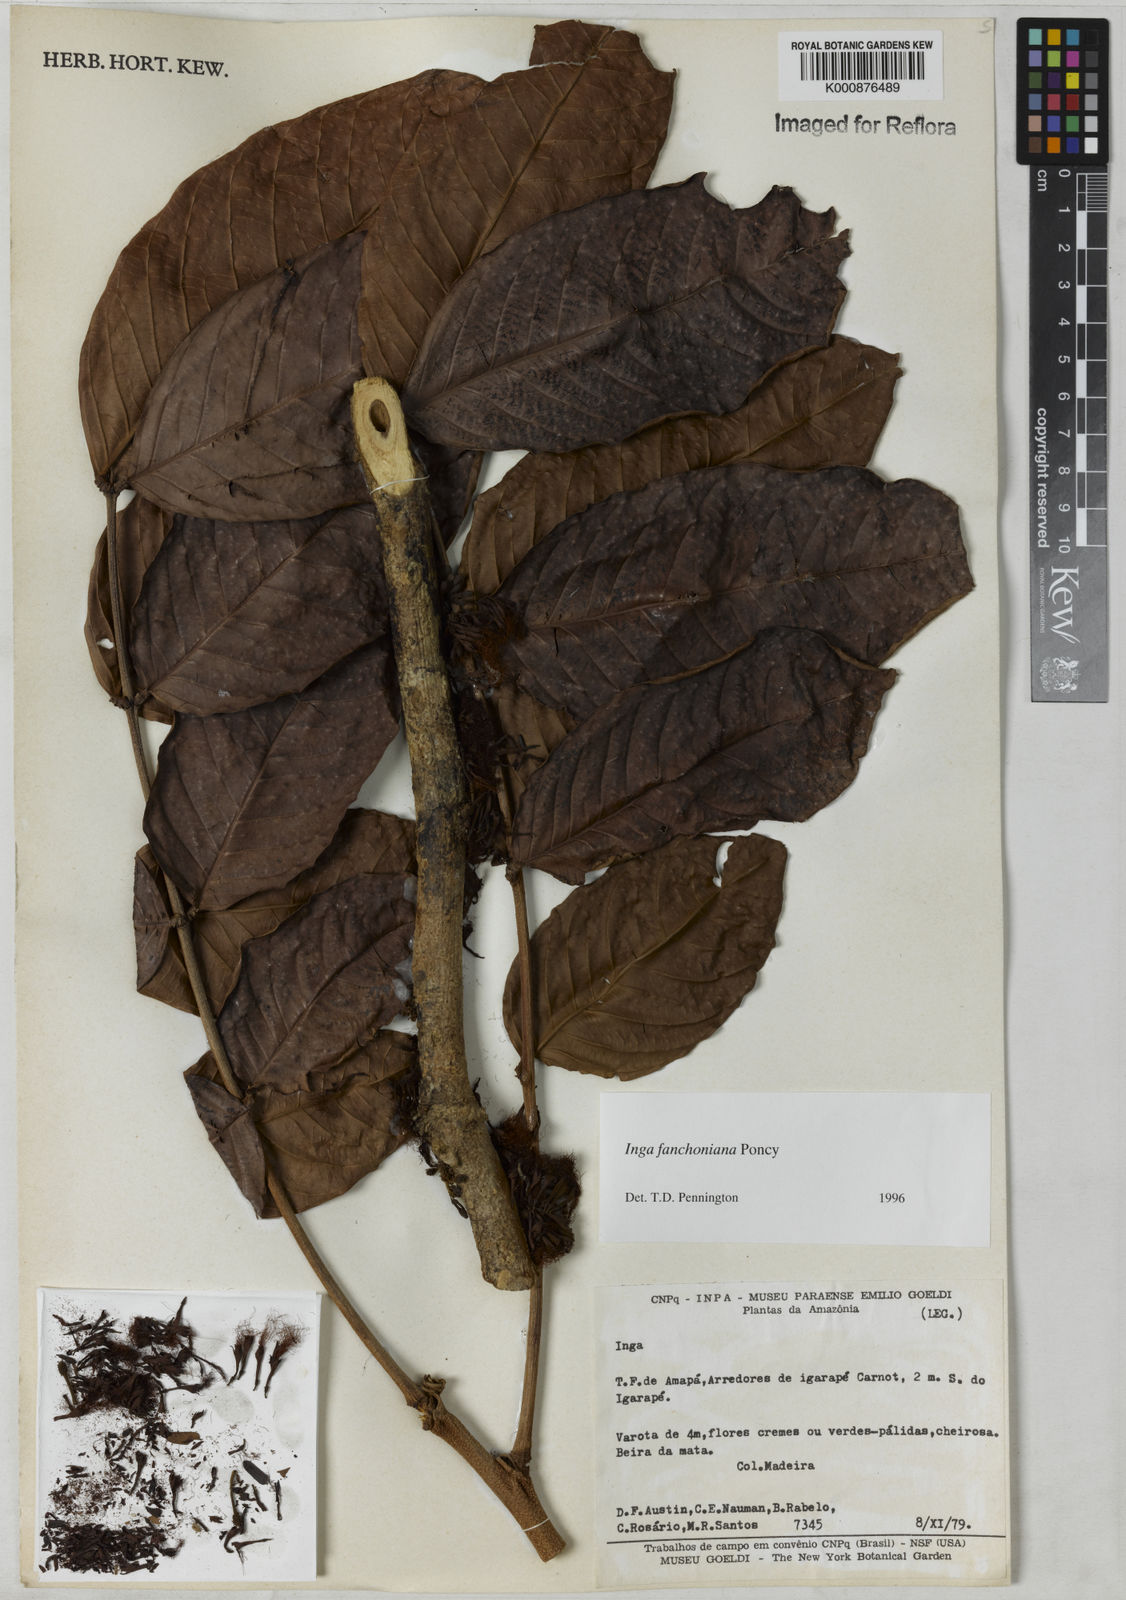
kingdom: Plantae
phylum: Tracheophyta
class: Magnoliopsida
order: Fabales
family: Fabaceae
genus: Inga
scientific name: Inga fanchoniana
